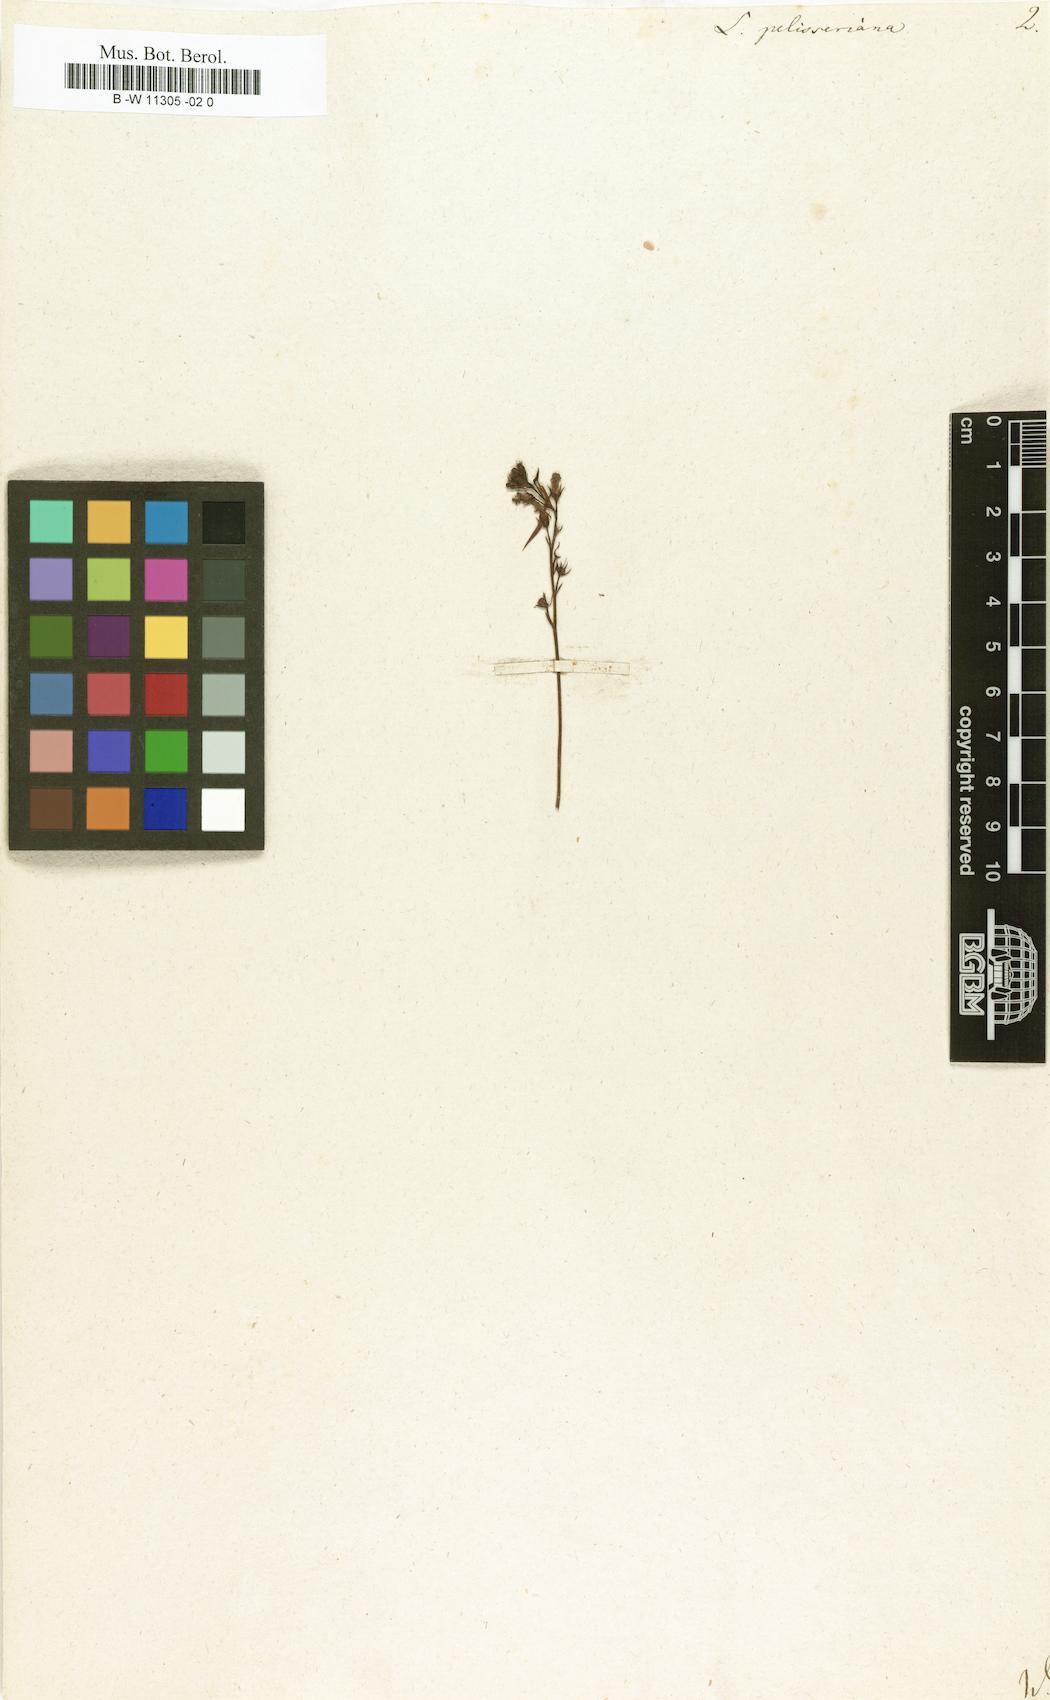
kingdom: Plantae
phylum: Tracheophyta
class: Magnoliopsida
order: Lamiales
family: Plantaginaceae
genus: Linaria
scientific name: Linaria pelisseriana
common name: Jersey toadflax
